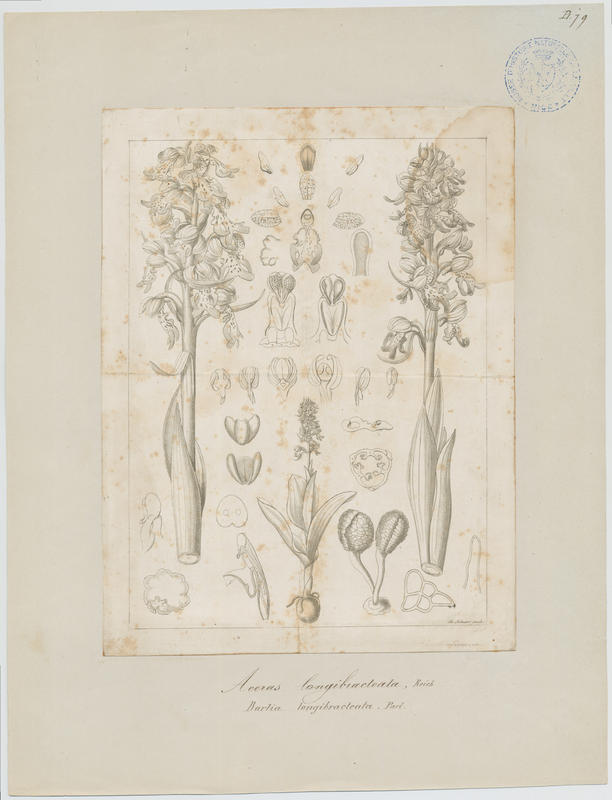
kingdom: Plantae
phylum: Tracheophyta
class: Liliopsida
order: Asparagales
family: Orchidaceae
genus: Himantoglossum
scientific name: Himantoglossum robertianum
